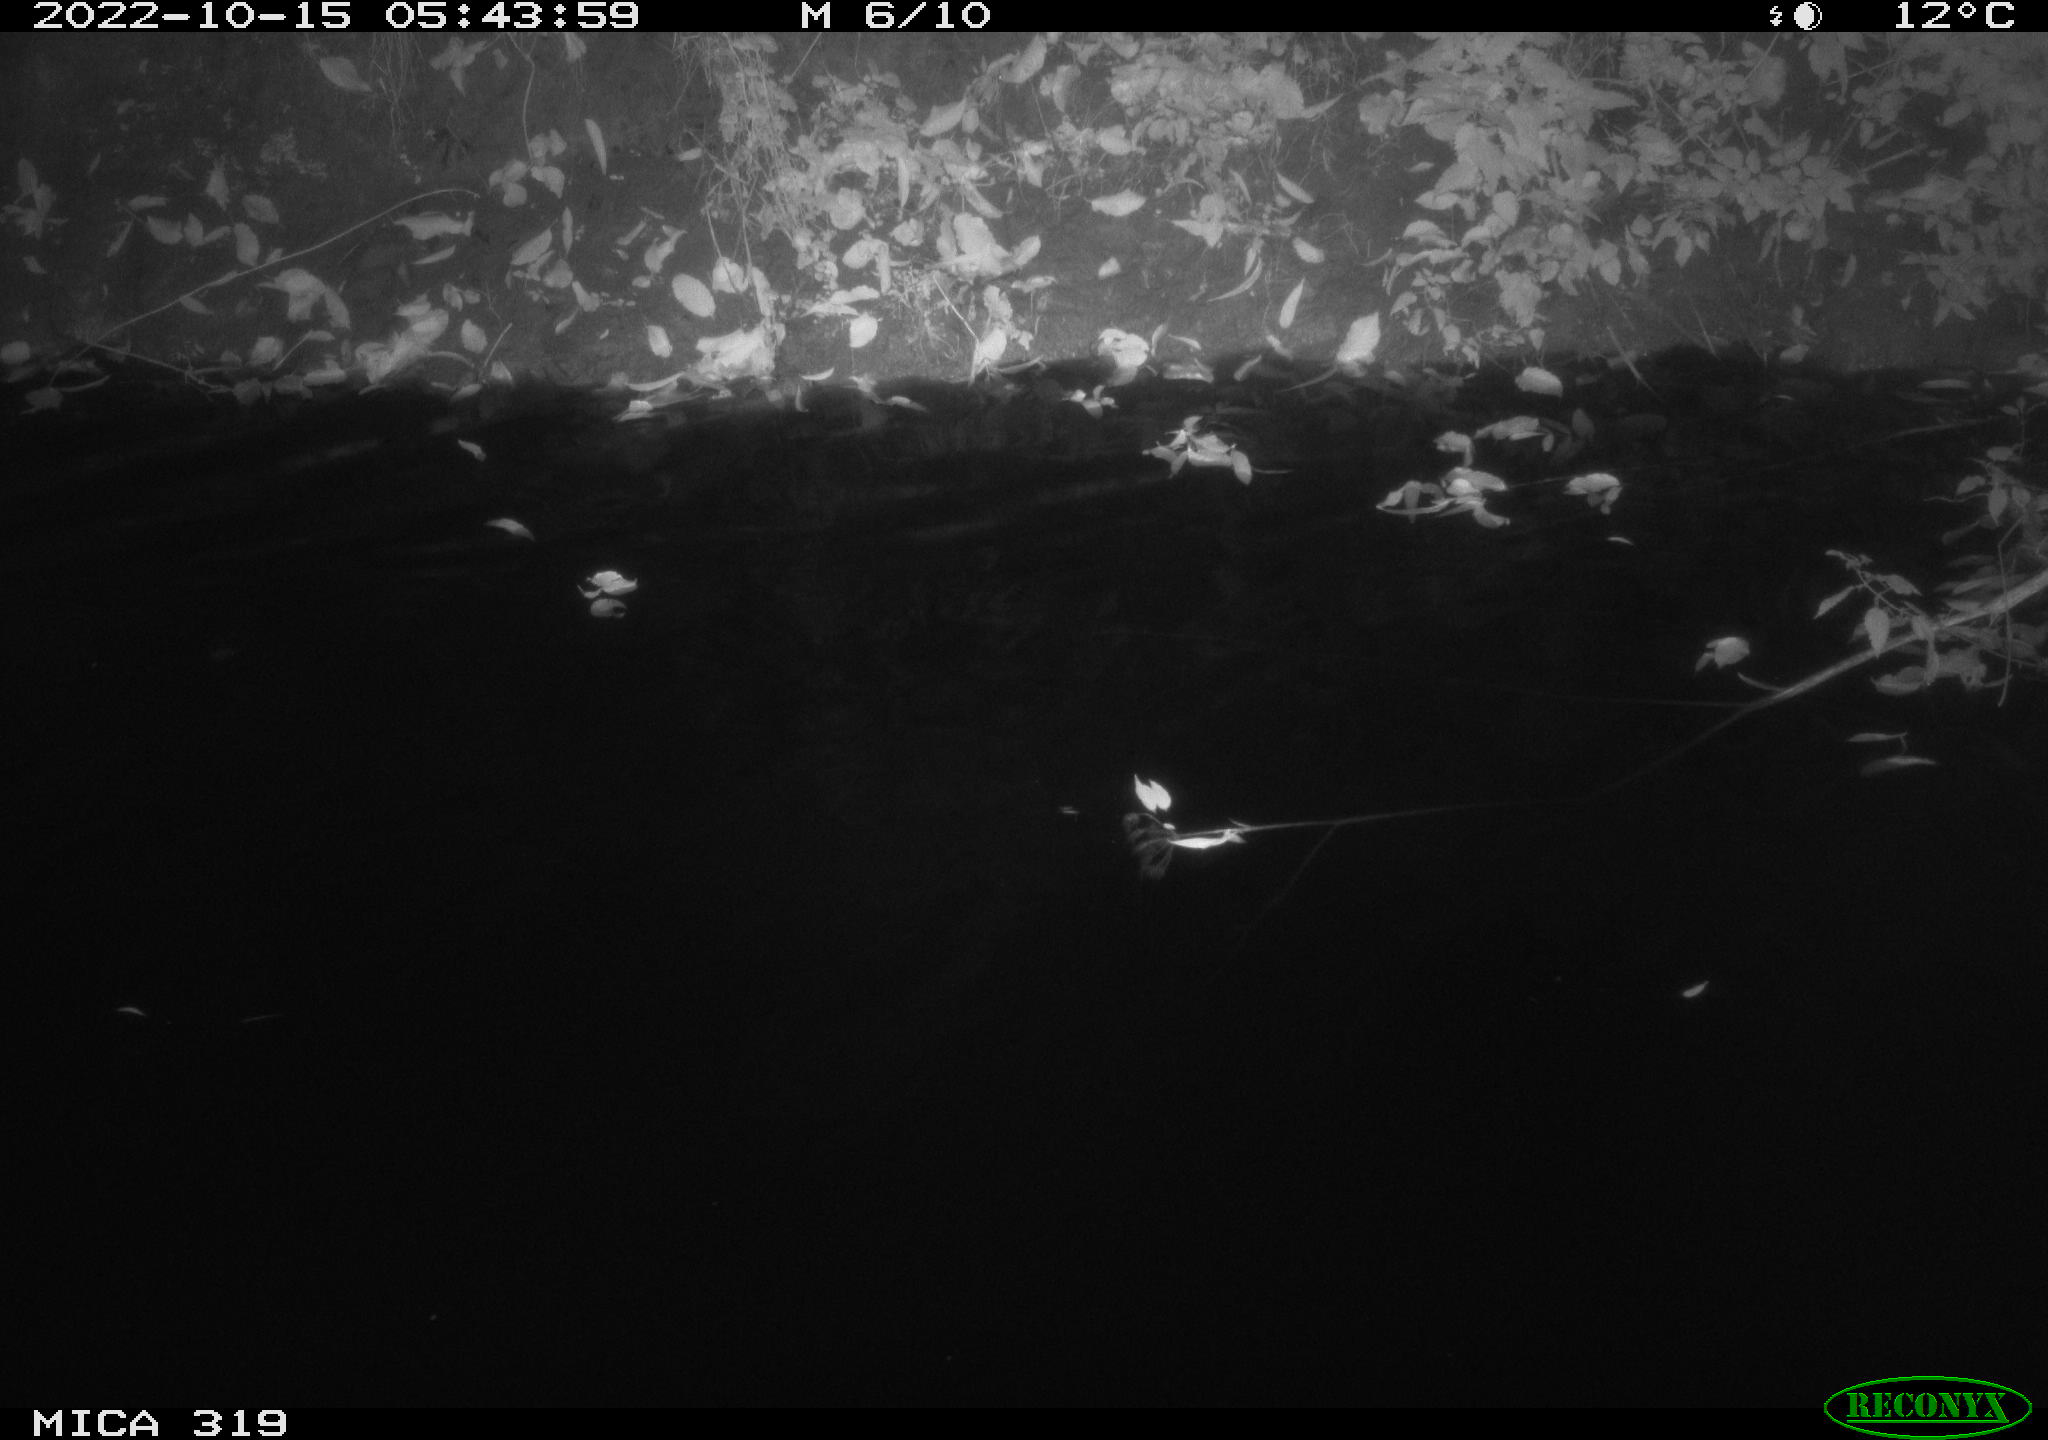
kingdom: Animalia
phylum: Chordata
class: Aves
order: Anseriformes
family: Anatidae
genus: Anas
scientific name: Anas
